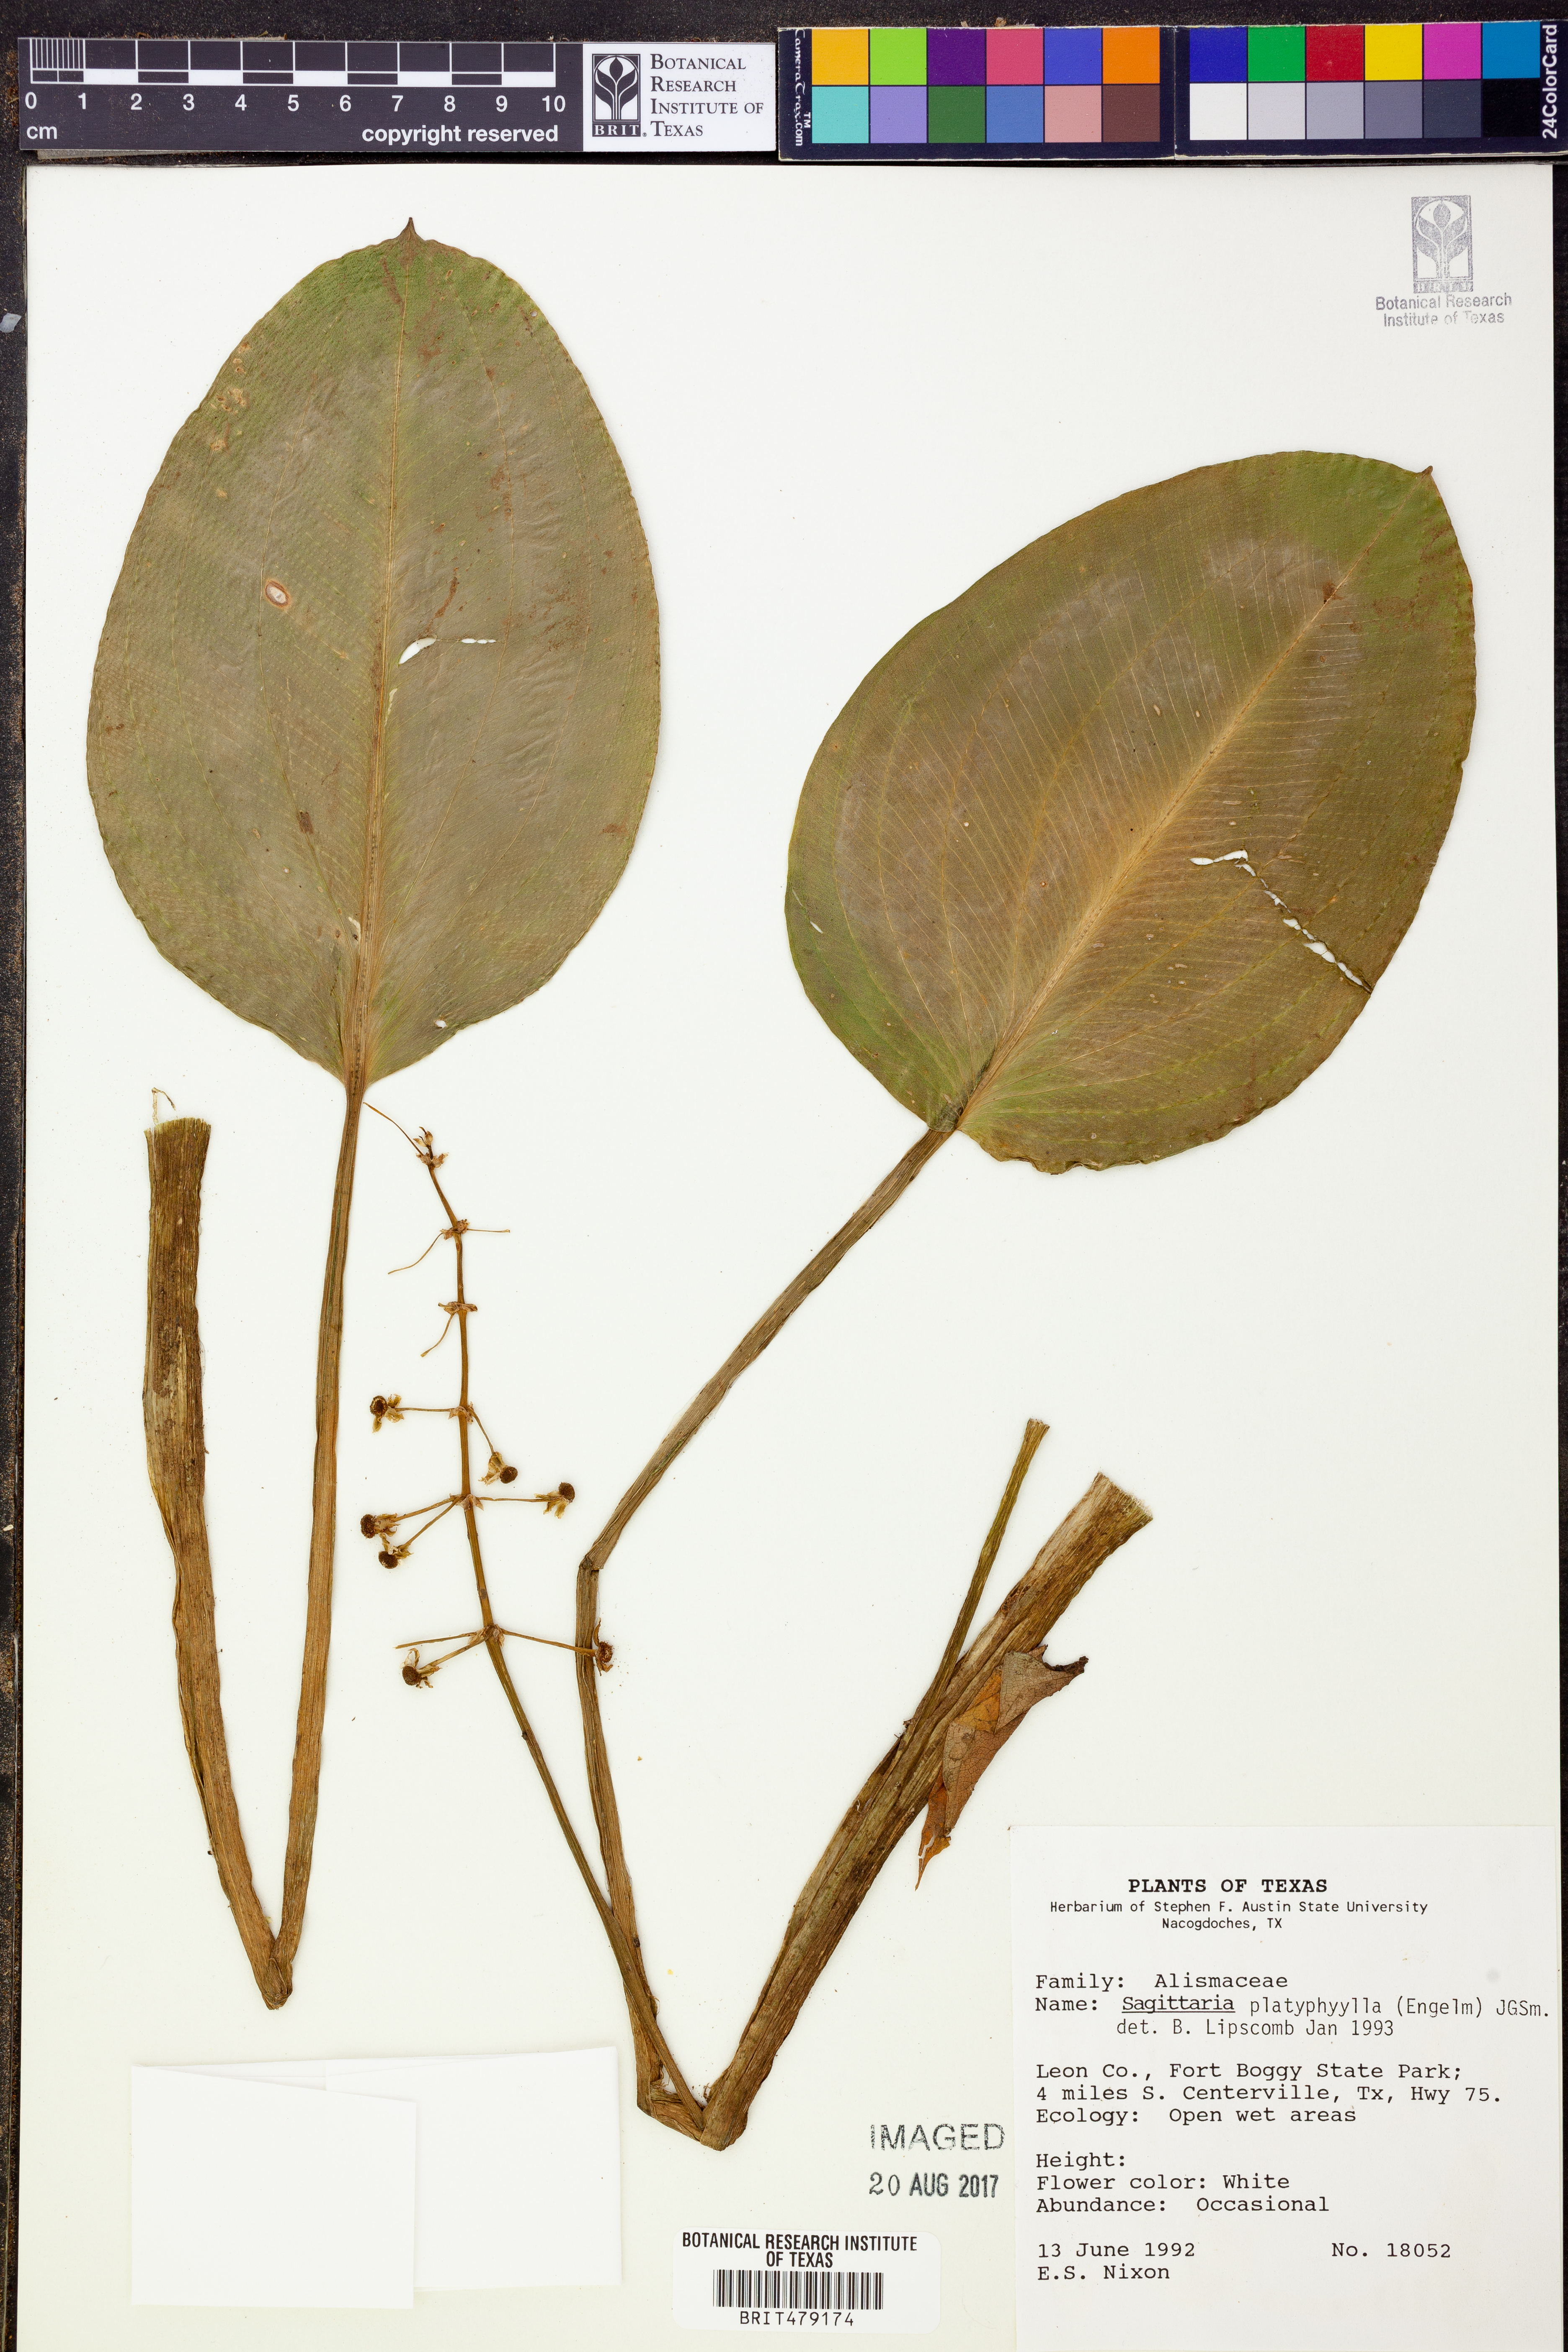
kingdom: Plantae
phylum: Tracheophyta
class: Liliopsida
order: Alismatales
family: Alismataceae
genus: Sagittaria
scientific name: Sagittaria platyphylla
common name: Broad-leaf arrowhead
